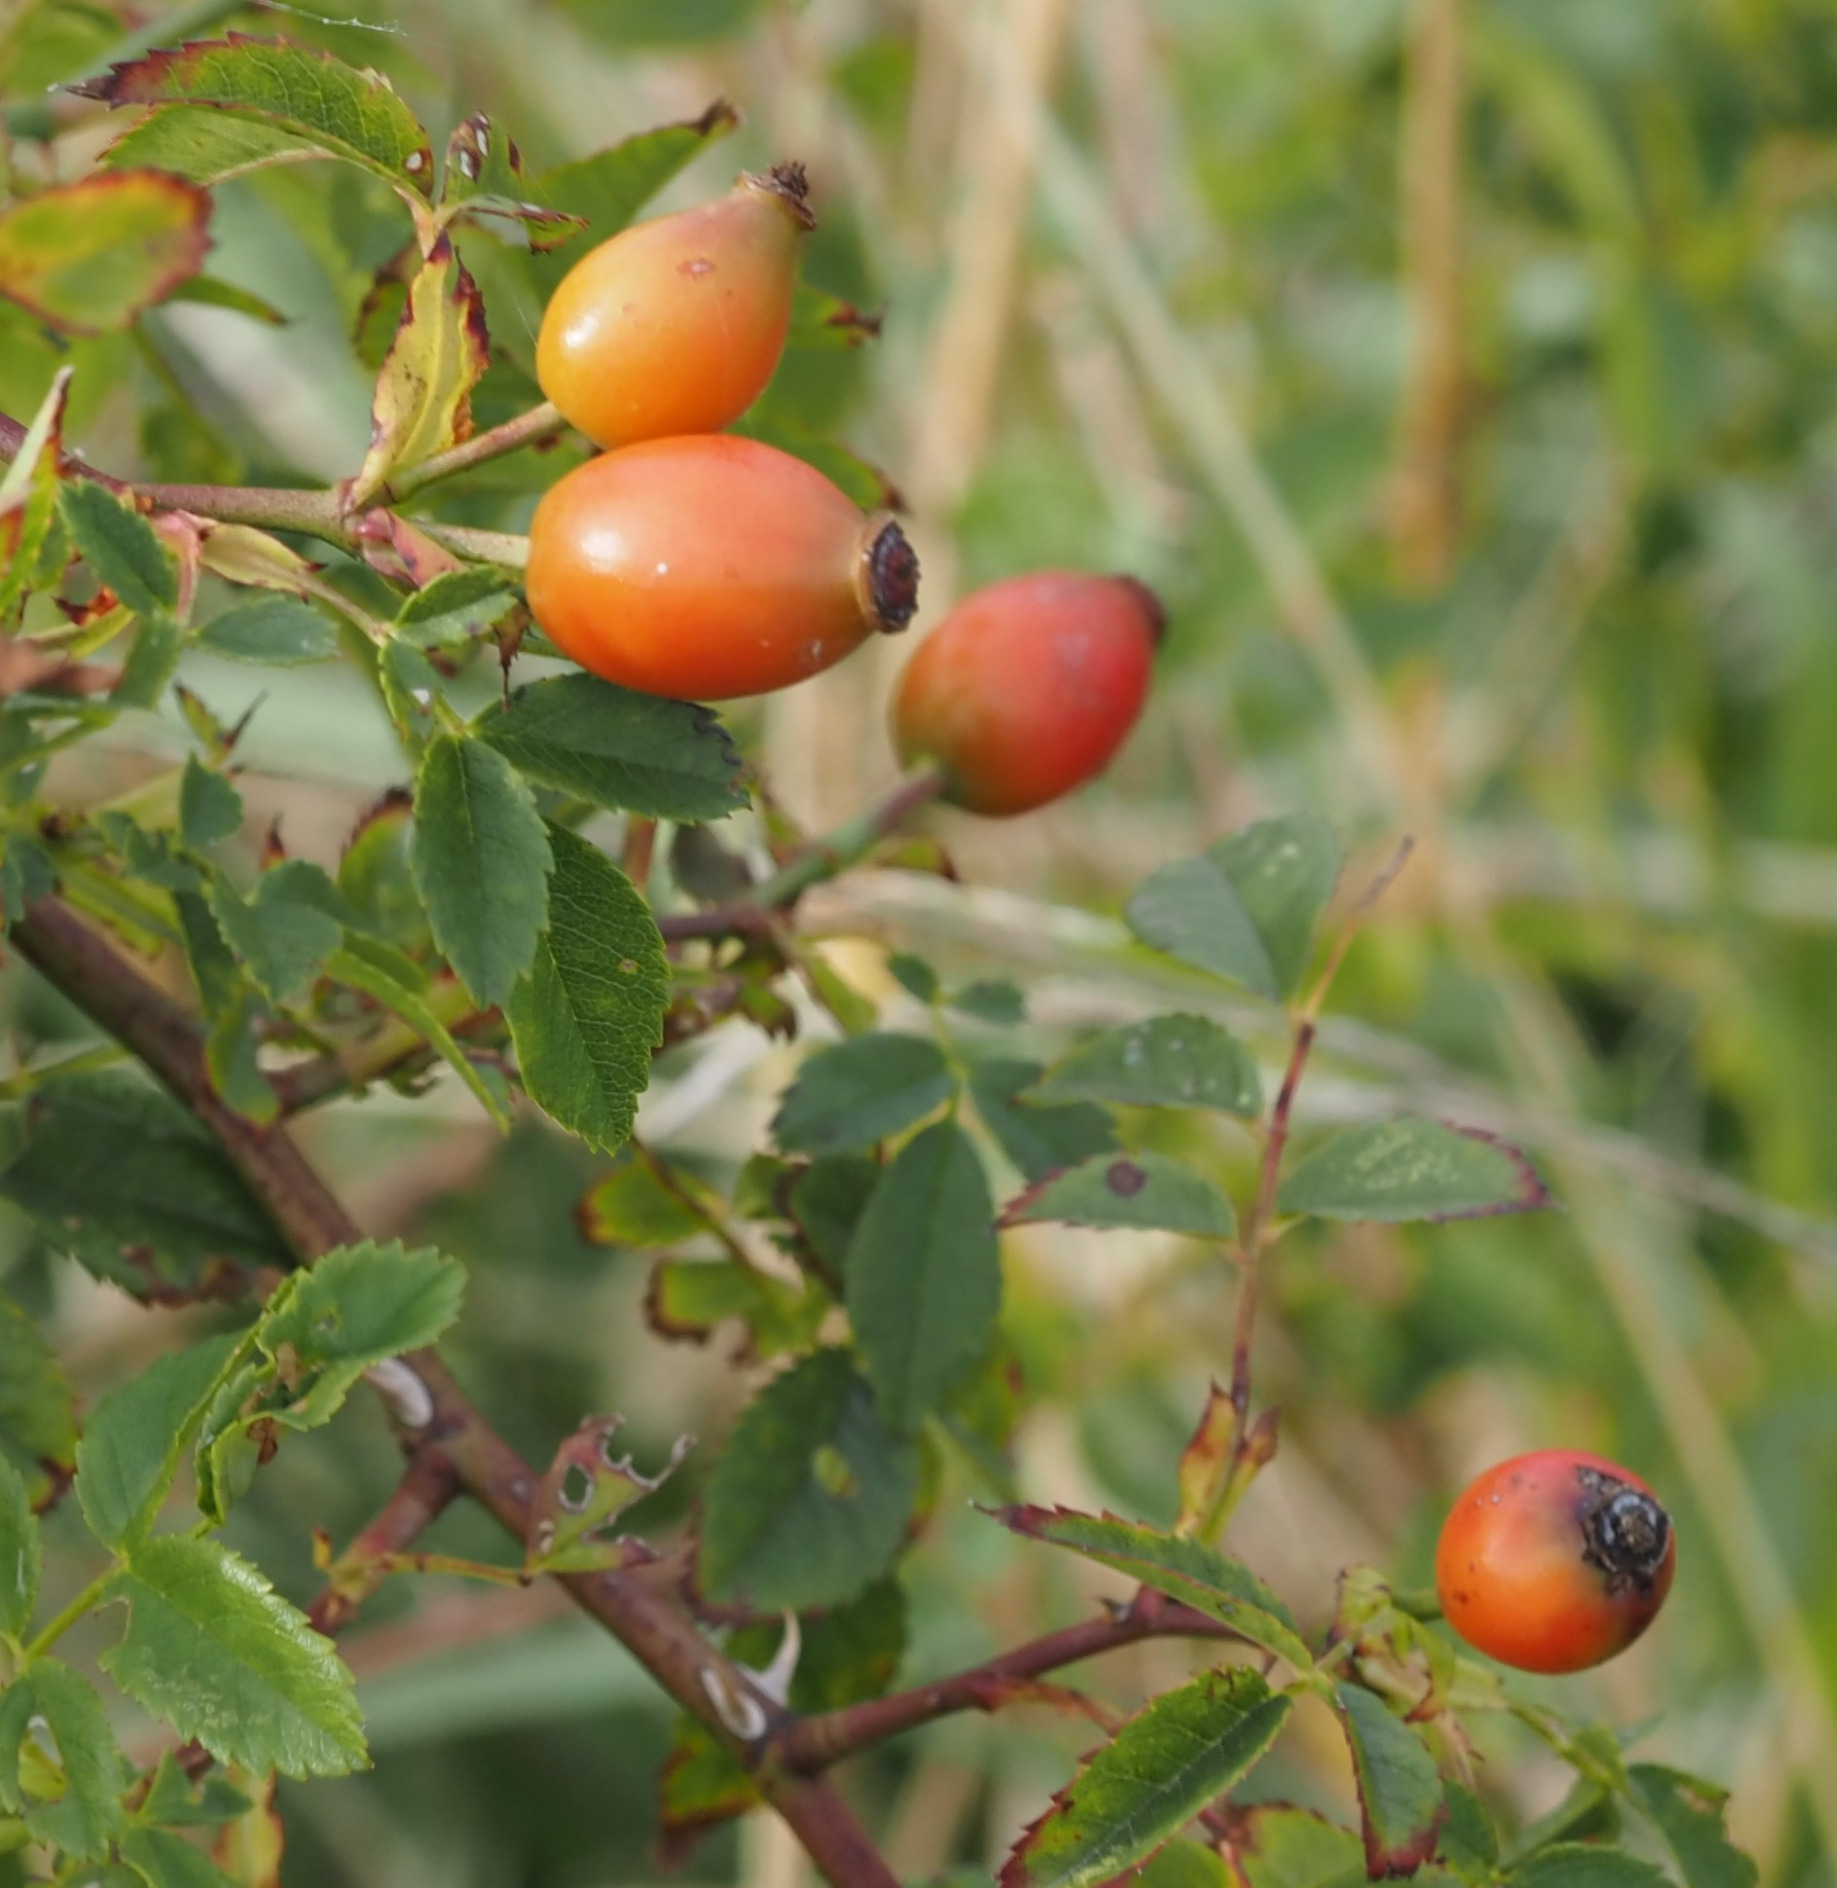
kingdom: Plantae
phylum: Tracheophyta
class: Magnoliopsida
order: Rosales
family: Rosaceae
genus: Rosa
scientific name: Rosa canina
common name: Glat hunde-rose
